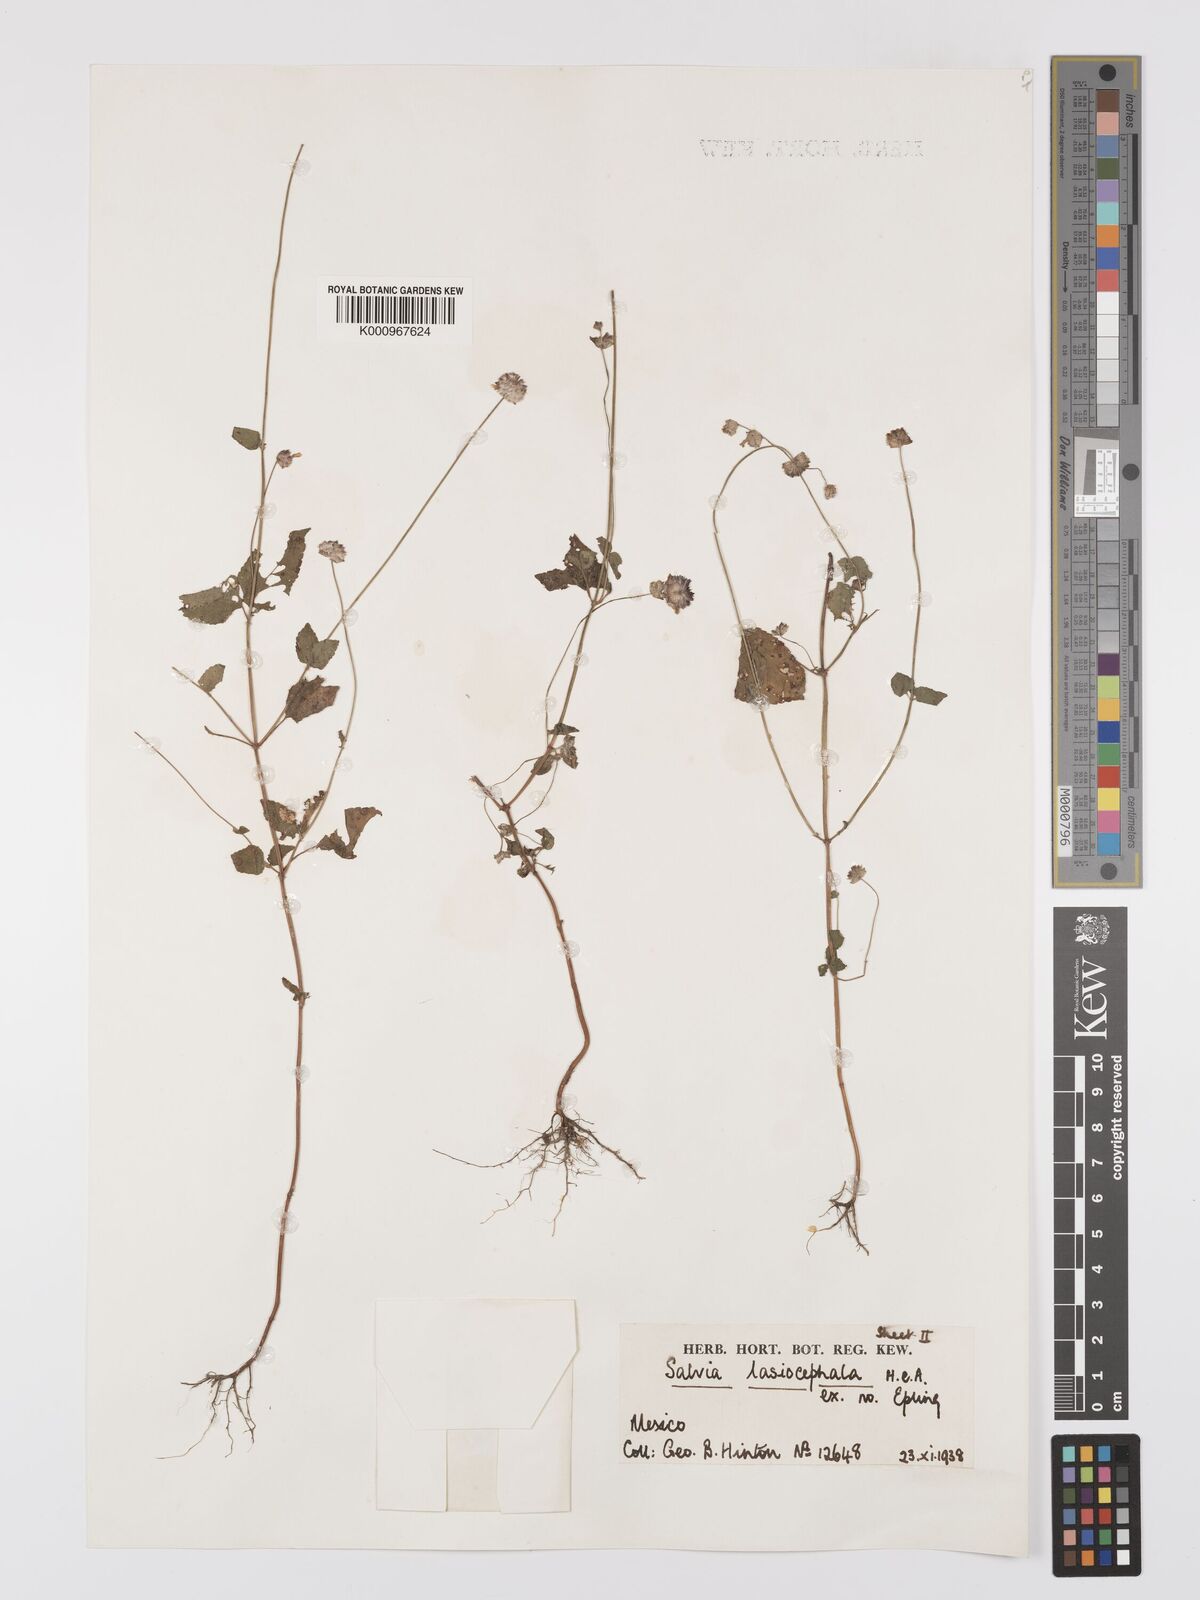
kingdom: Plantae
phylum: Tracheophyta
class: Magnoliopsida
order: Lamiales
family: Lamiaceae
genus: Salvia
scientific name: Salvia lasiocephala
